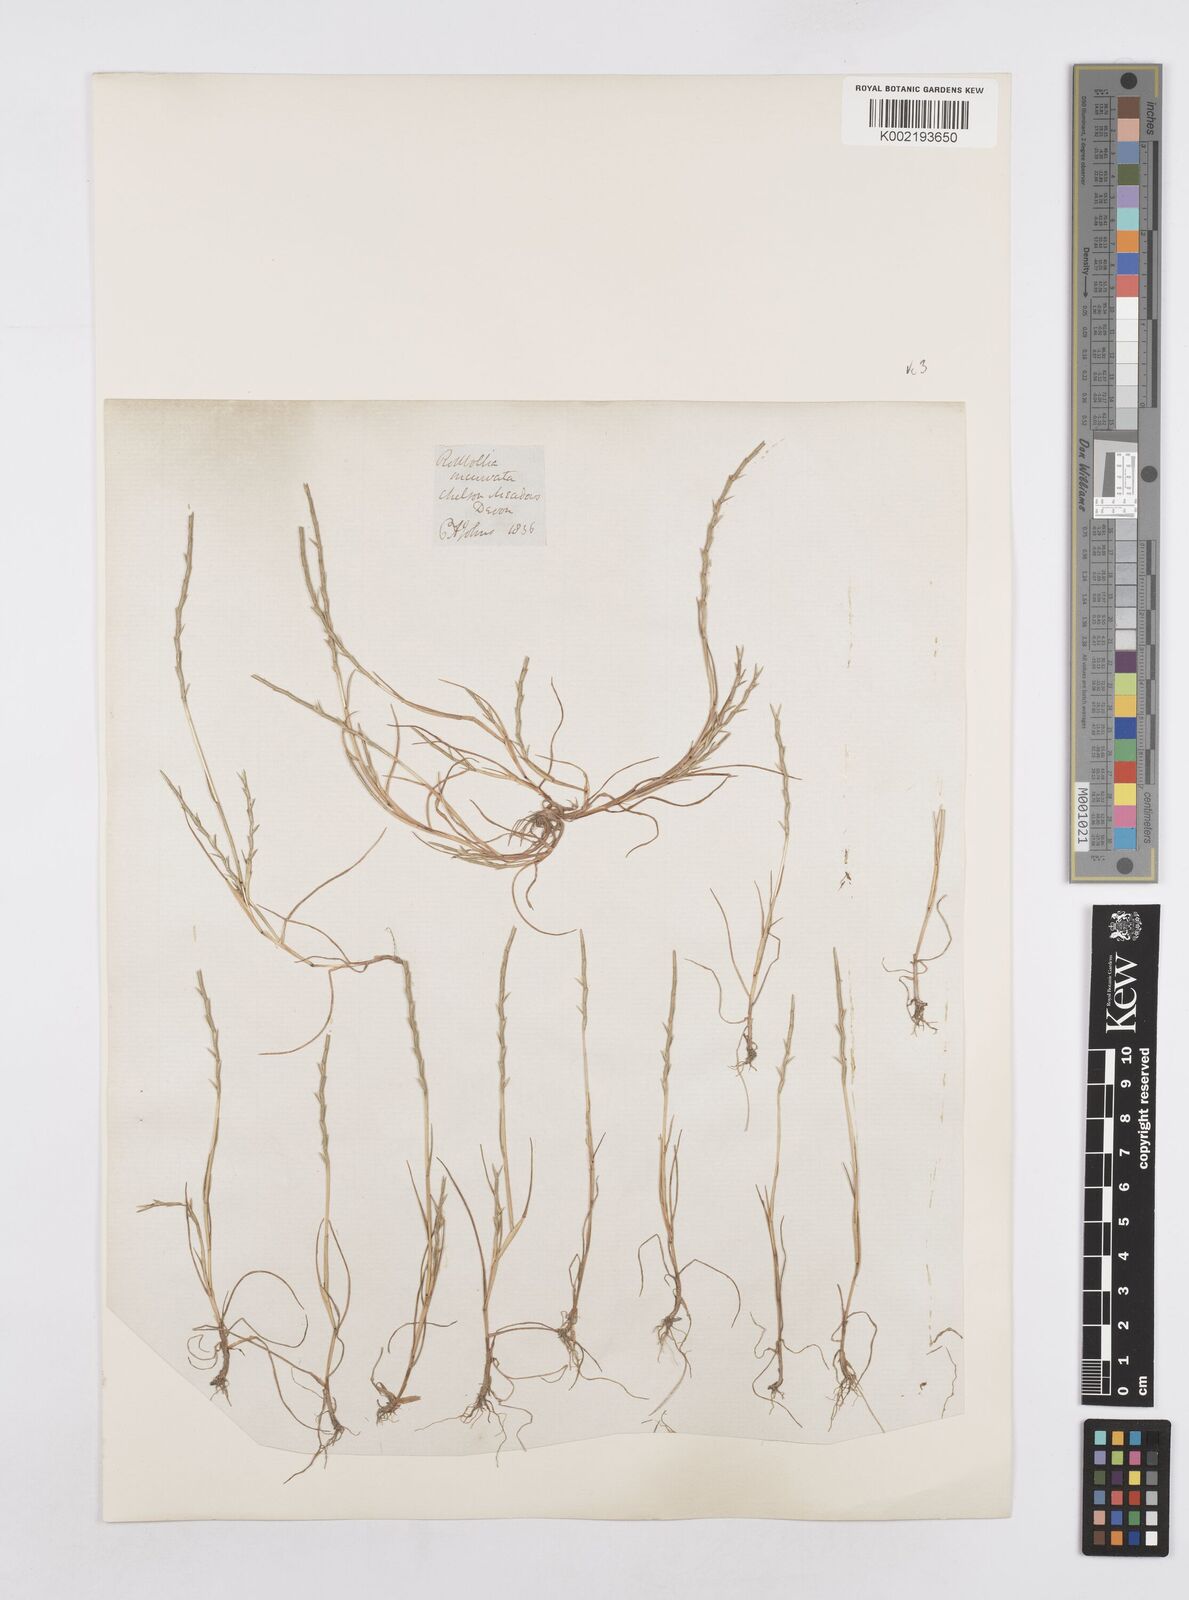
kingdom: Plantae
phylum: Tracheophyta
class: Liliopsida
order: Poales
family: Poaceae
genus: Parapholis
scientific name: Parapholis strigosa
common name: Hard-grass
